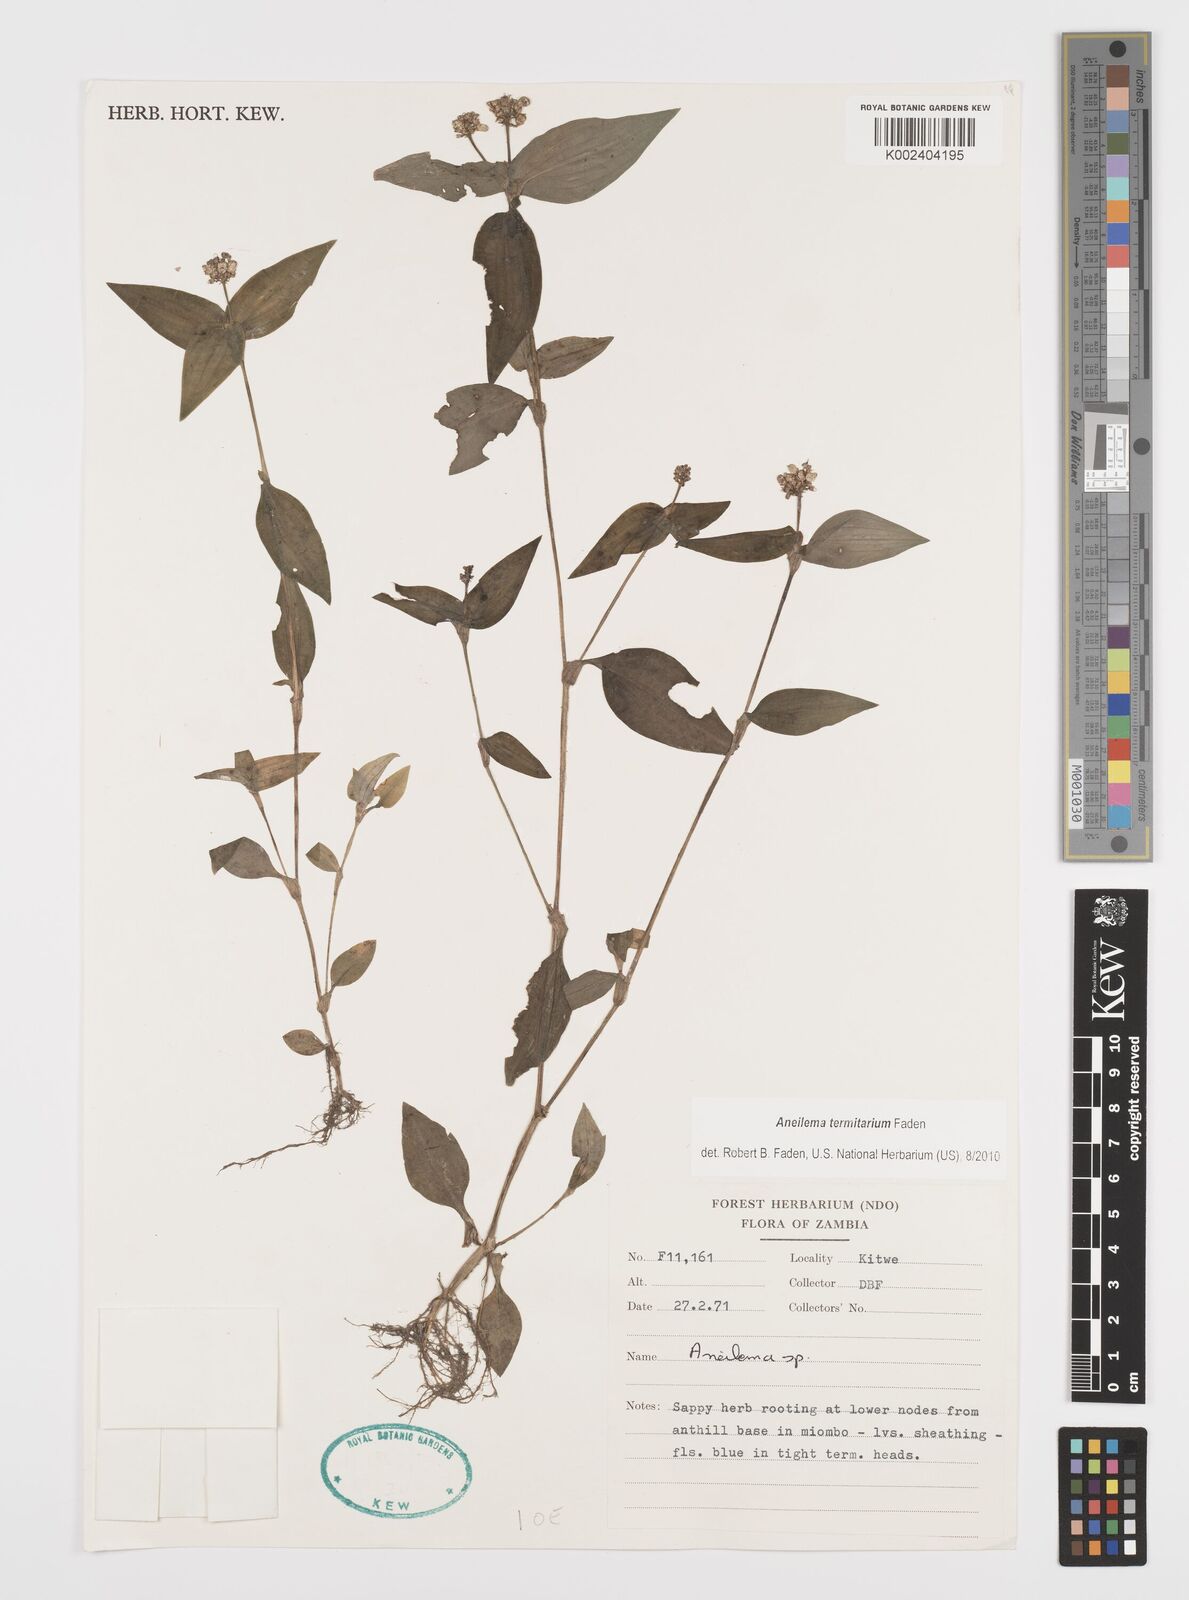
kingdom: Plantae
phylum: Tracheophyta
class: Liliopsida
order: Commelinales
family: Commelinaceae
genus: Aneilema
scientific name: Aneilema termitarium
